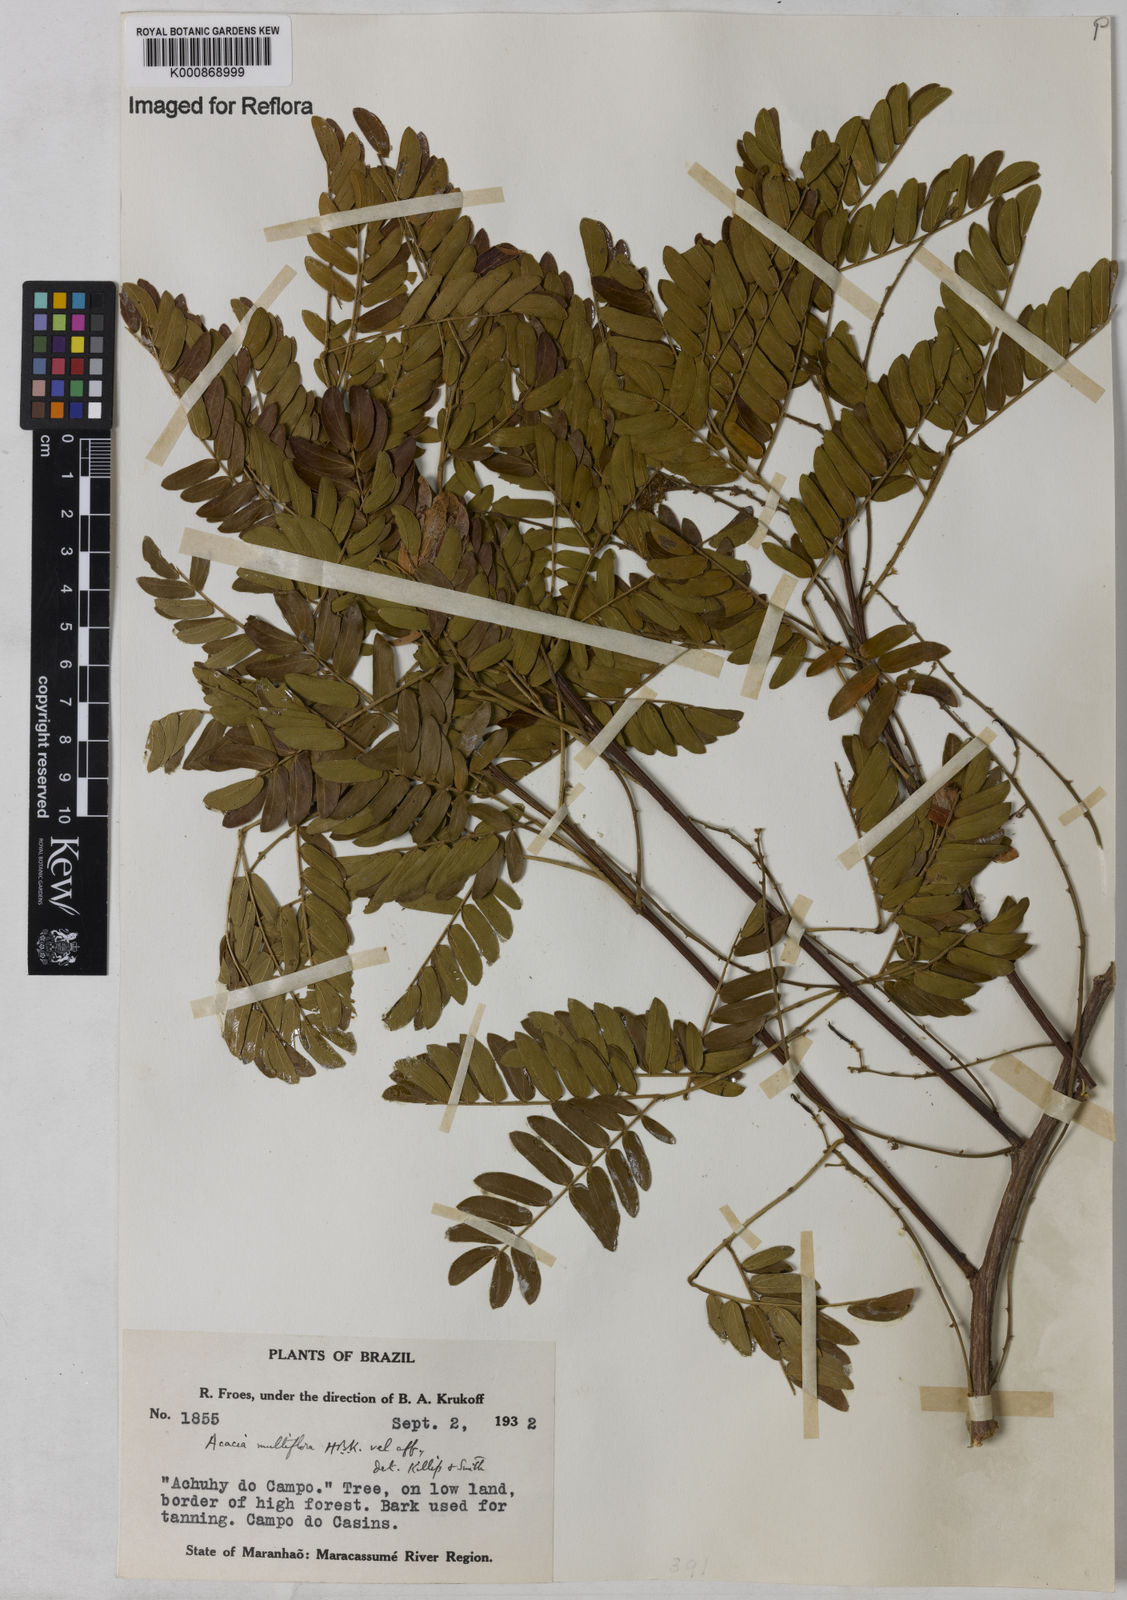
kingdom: Plantae
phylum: Tracheophyta
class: Magnoliopsida
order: Fabales
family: Fabaceae
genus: Albizia
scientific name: Albizia multiflora
